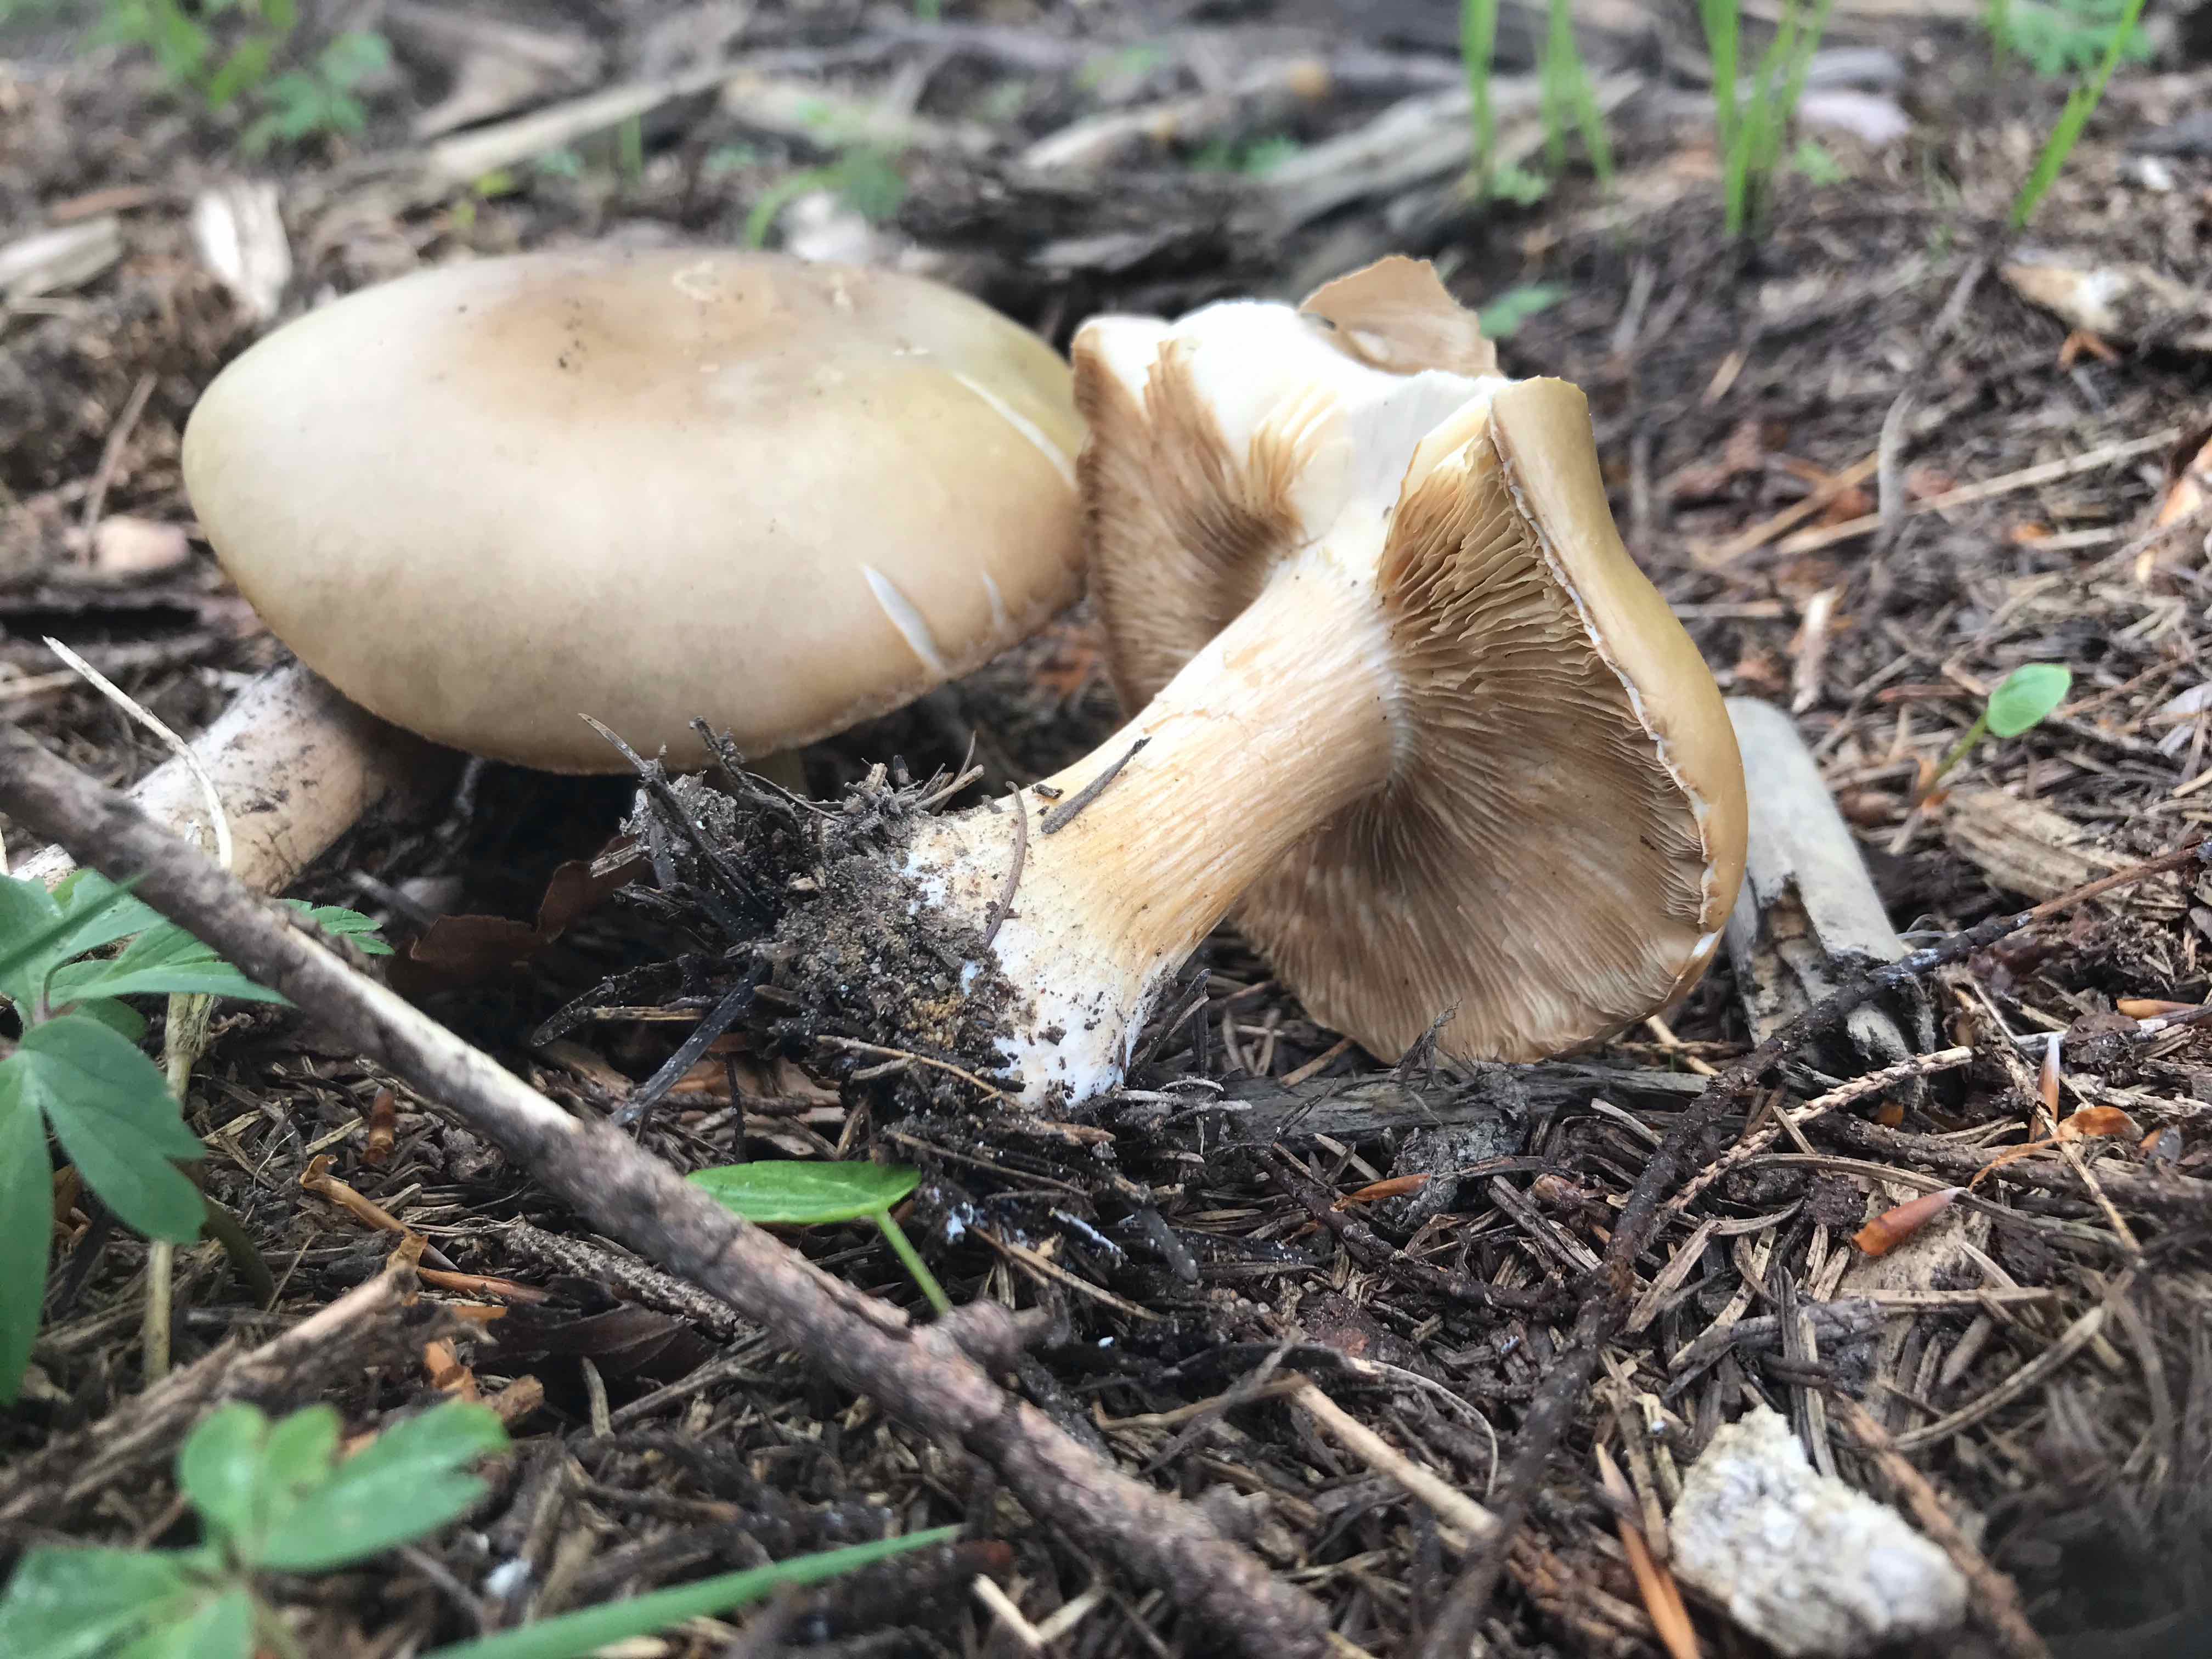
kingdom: Fungi
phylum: Basidiomycota
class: Agaricomycetes
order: Agaricales
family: Tricholomataceae
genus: Melanoleuca
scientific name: Melanoleuca
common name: munkehat
